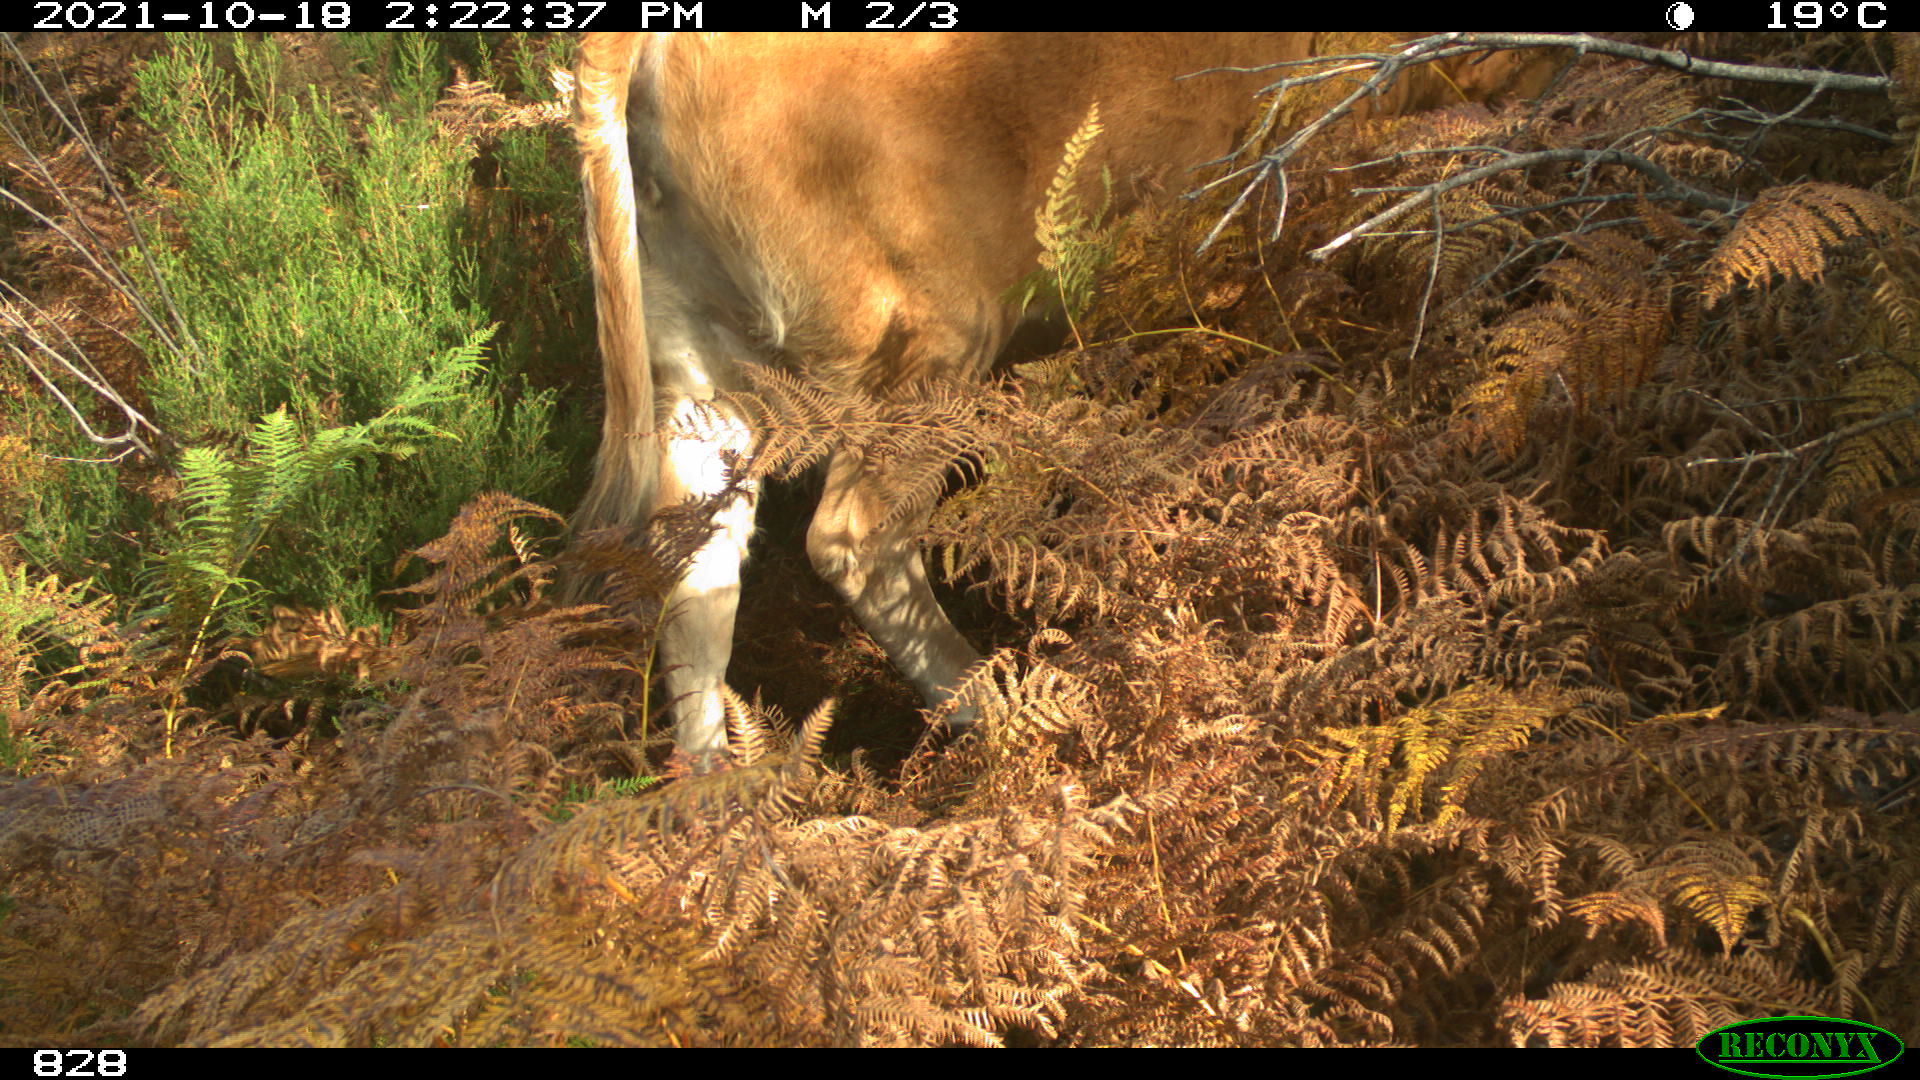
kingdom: Animalia
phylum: Chordata
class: Mammalia
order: Artiodactyla
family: Bovidae
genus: Bos
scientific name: Bos taurus
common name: Domesticated cattle
